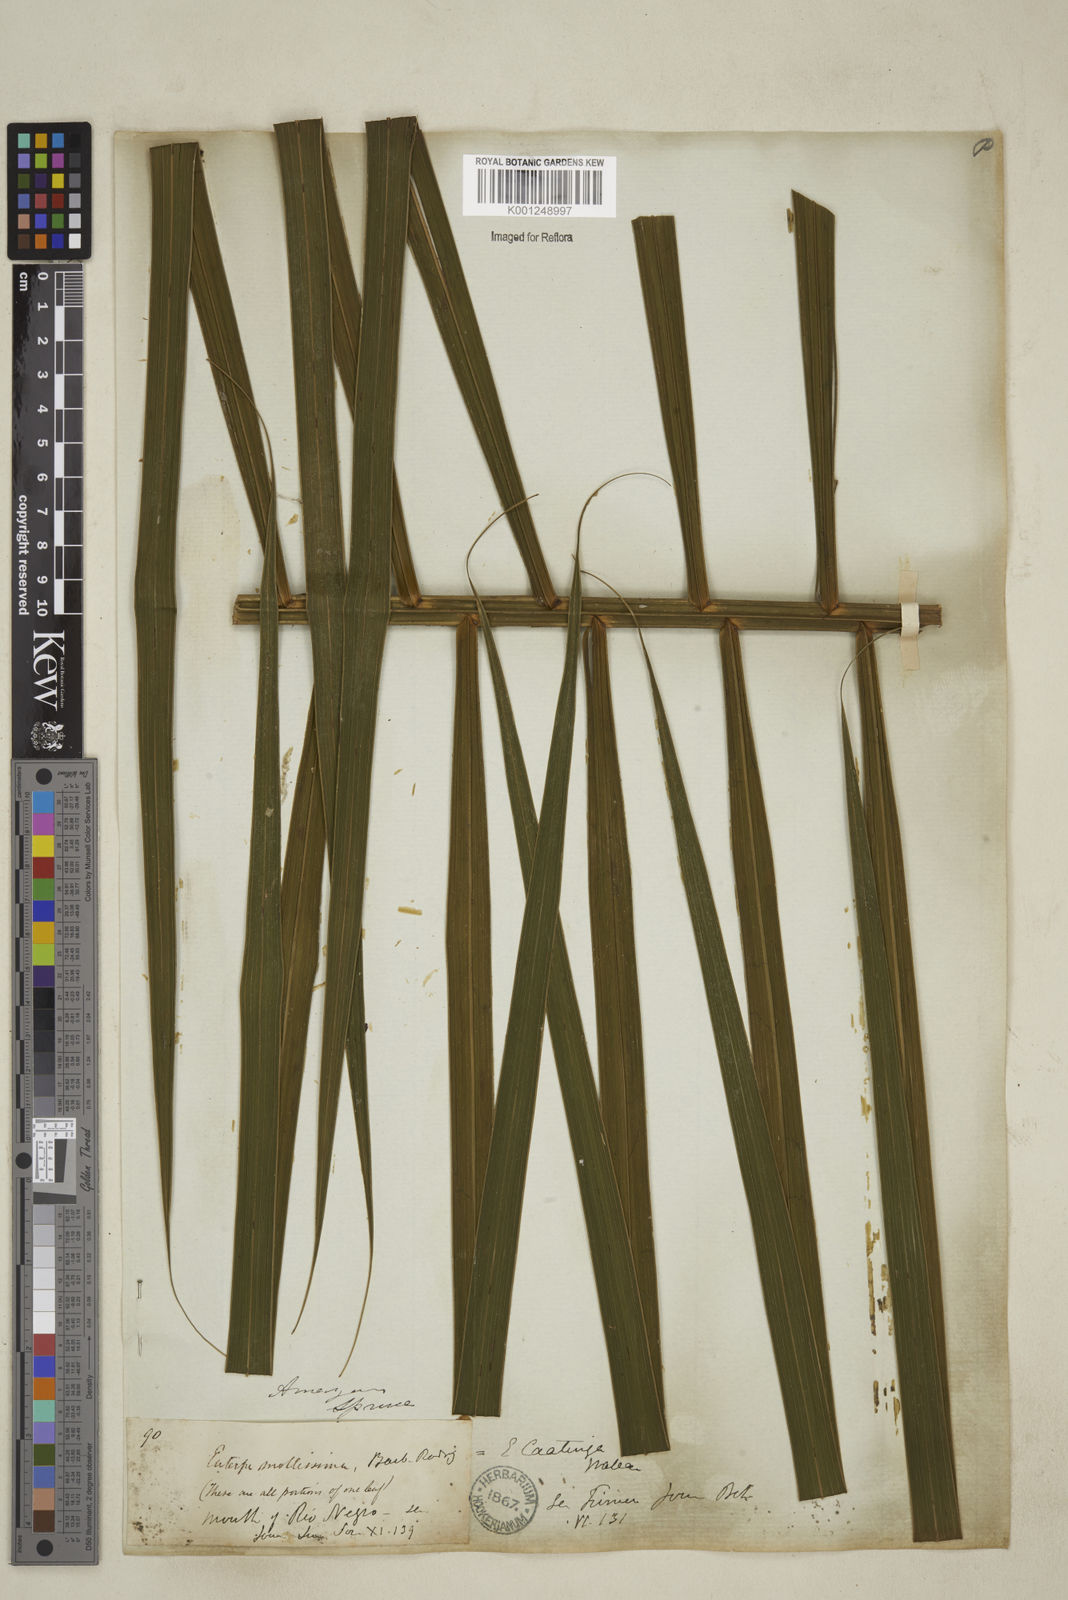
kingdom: Plantae
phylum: Tracheophyta
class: Liliopsida
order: Arecales
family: Arecaceae
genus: Euterpe
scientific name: Euterpe catinga
